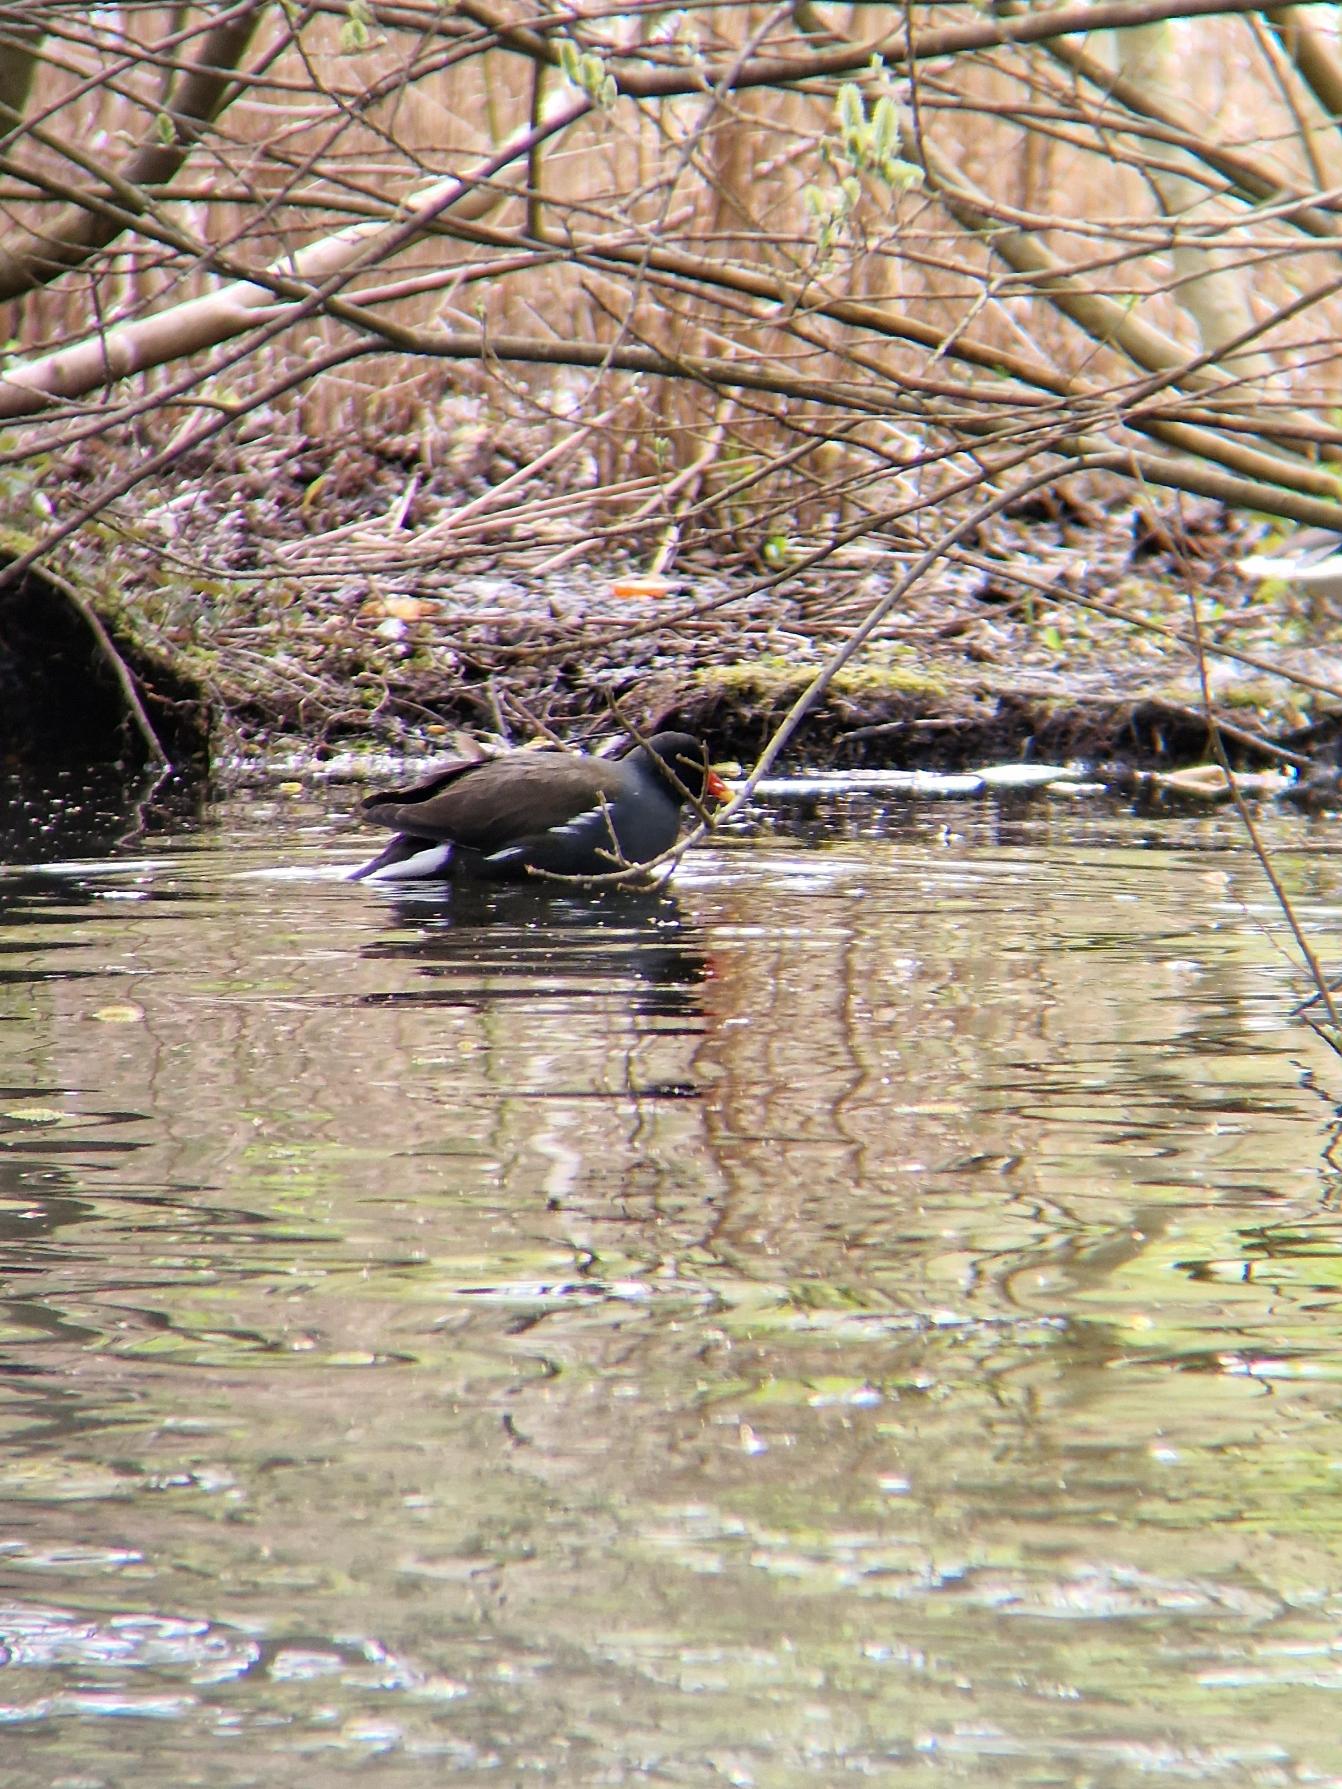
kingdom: Animalia
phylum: Chordata
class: Aves
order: Gruiformes
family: Rallidae
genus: Gallinula
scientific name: Gallinula chloropus
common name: Grønbenet rørhøne
